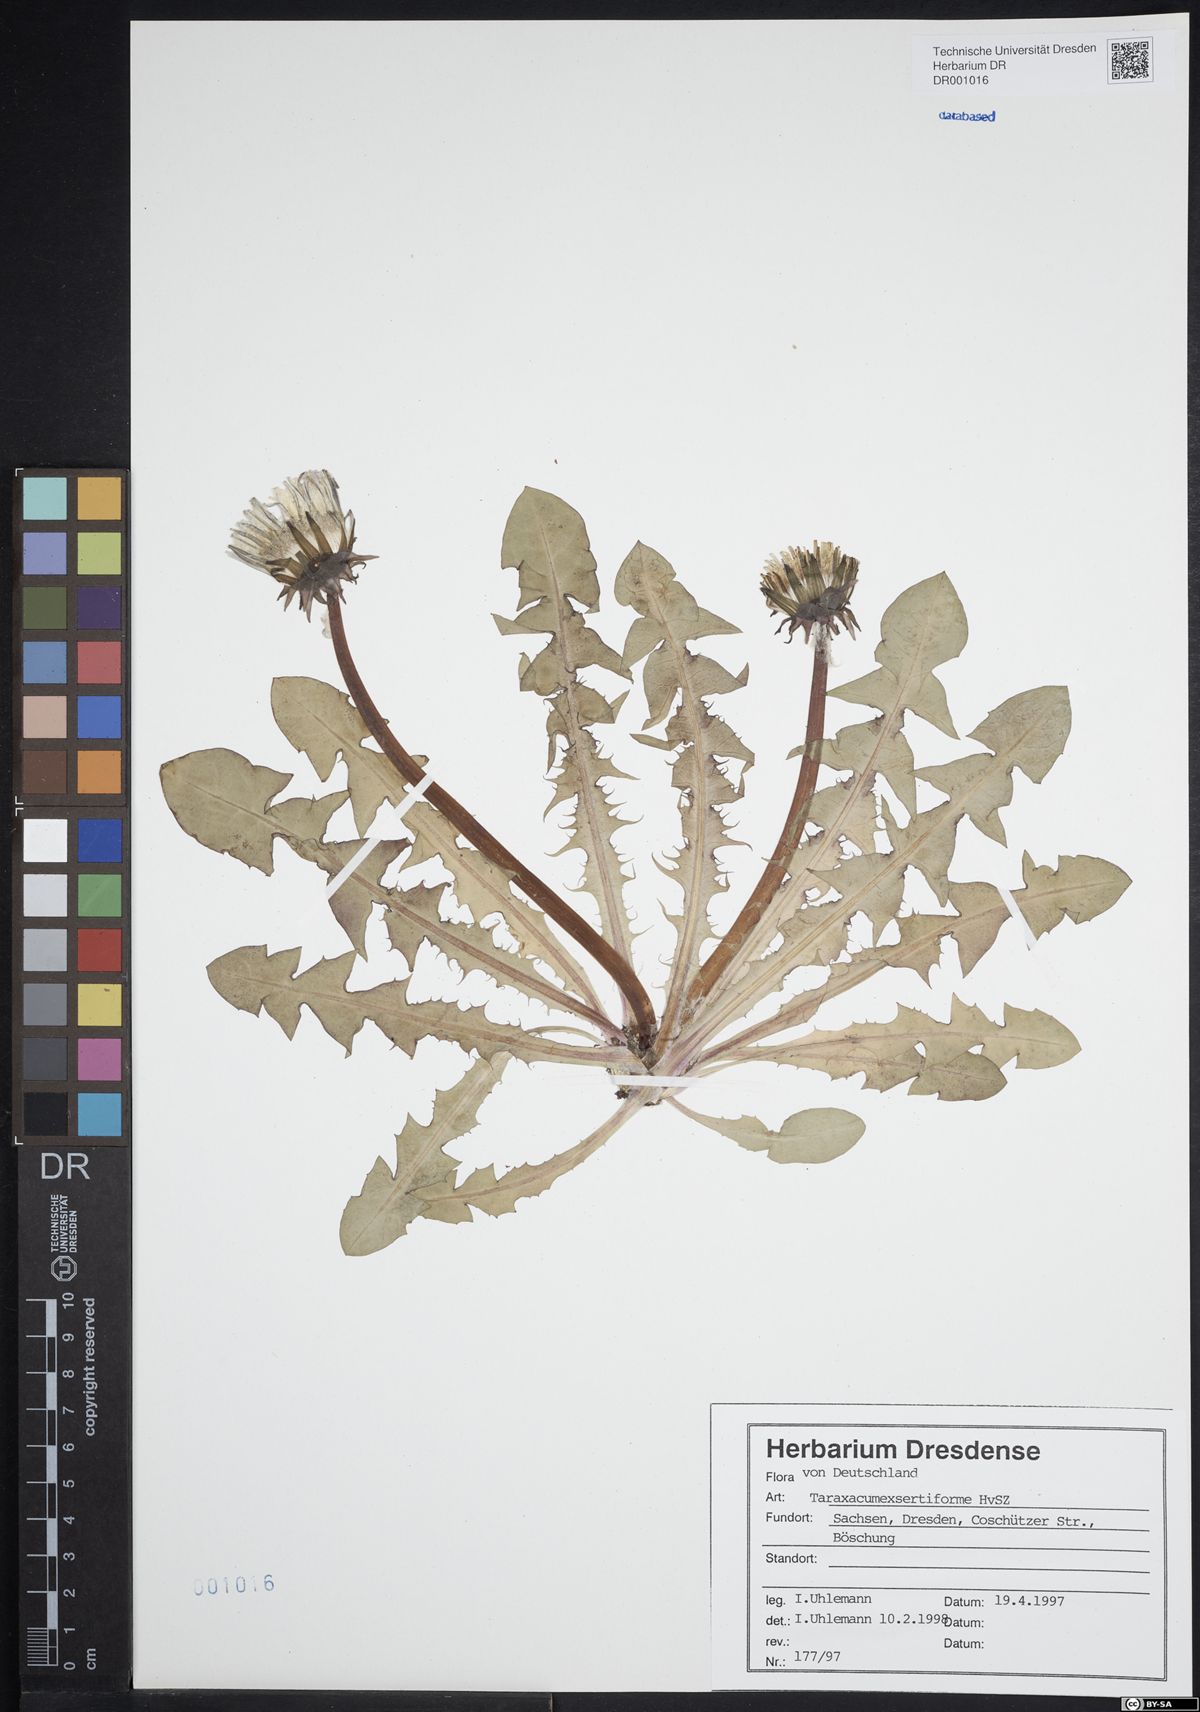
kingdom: Plantae
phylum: Tracheophyta
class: Magnoliopsida
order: Asterales
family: Asteraceae
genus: Taraxacum
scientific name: Taraxacum exsertiforme
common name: Erect-bracted dandelion
